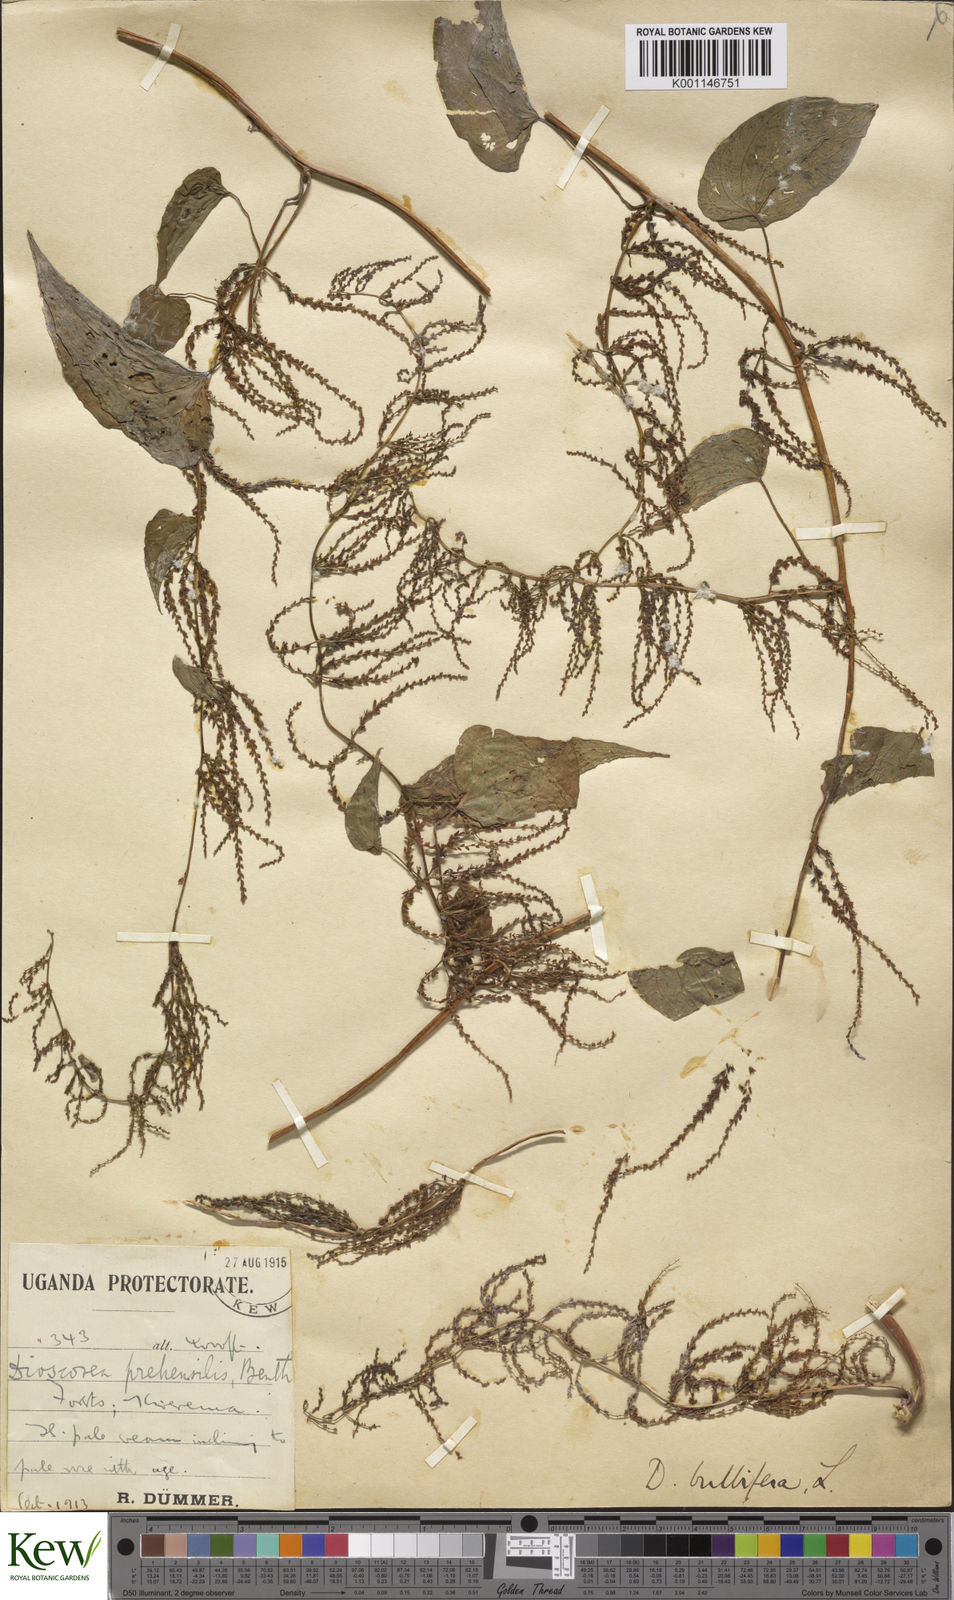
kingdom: Plantae
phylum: Tracheophyta
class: Liliopsida
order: Dioscoreales
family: Dioscoreaceae
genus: Dioscorea
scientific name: Dioscorea bulbifera
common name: Air yam
